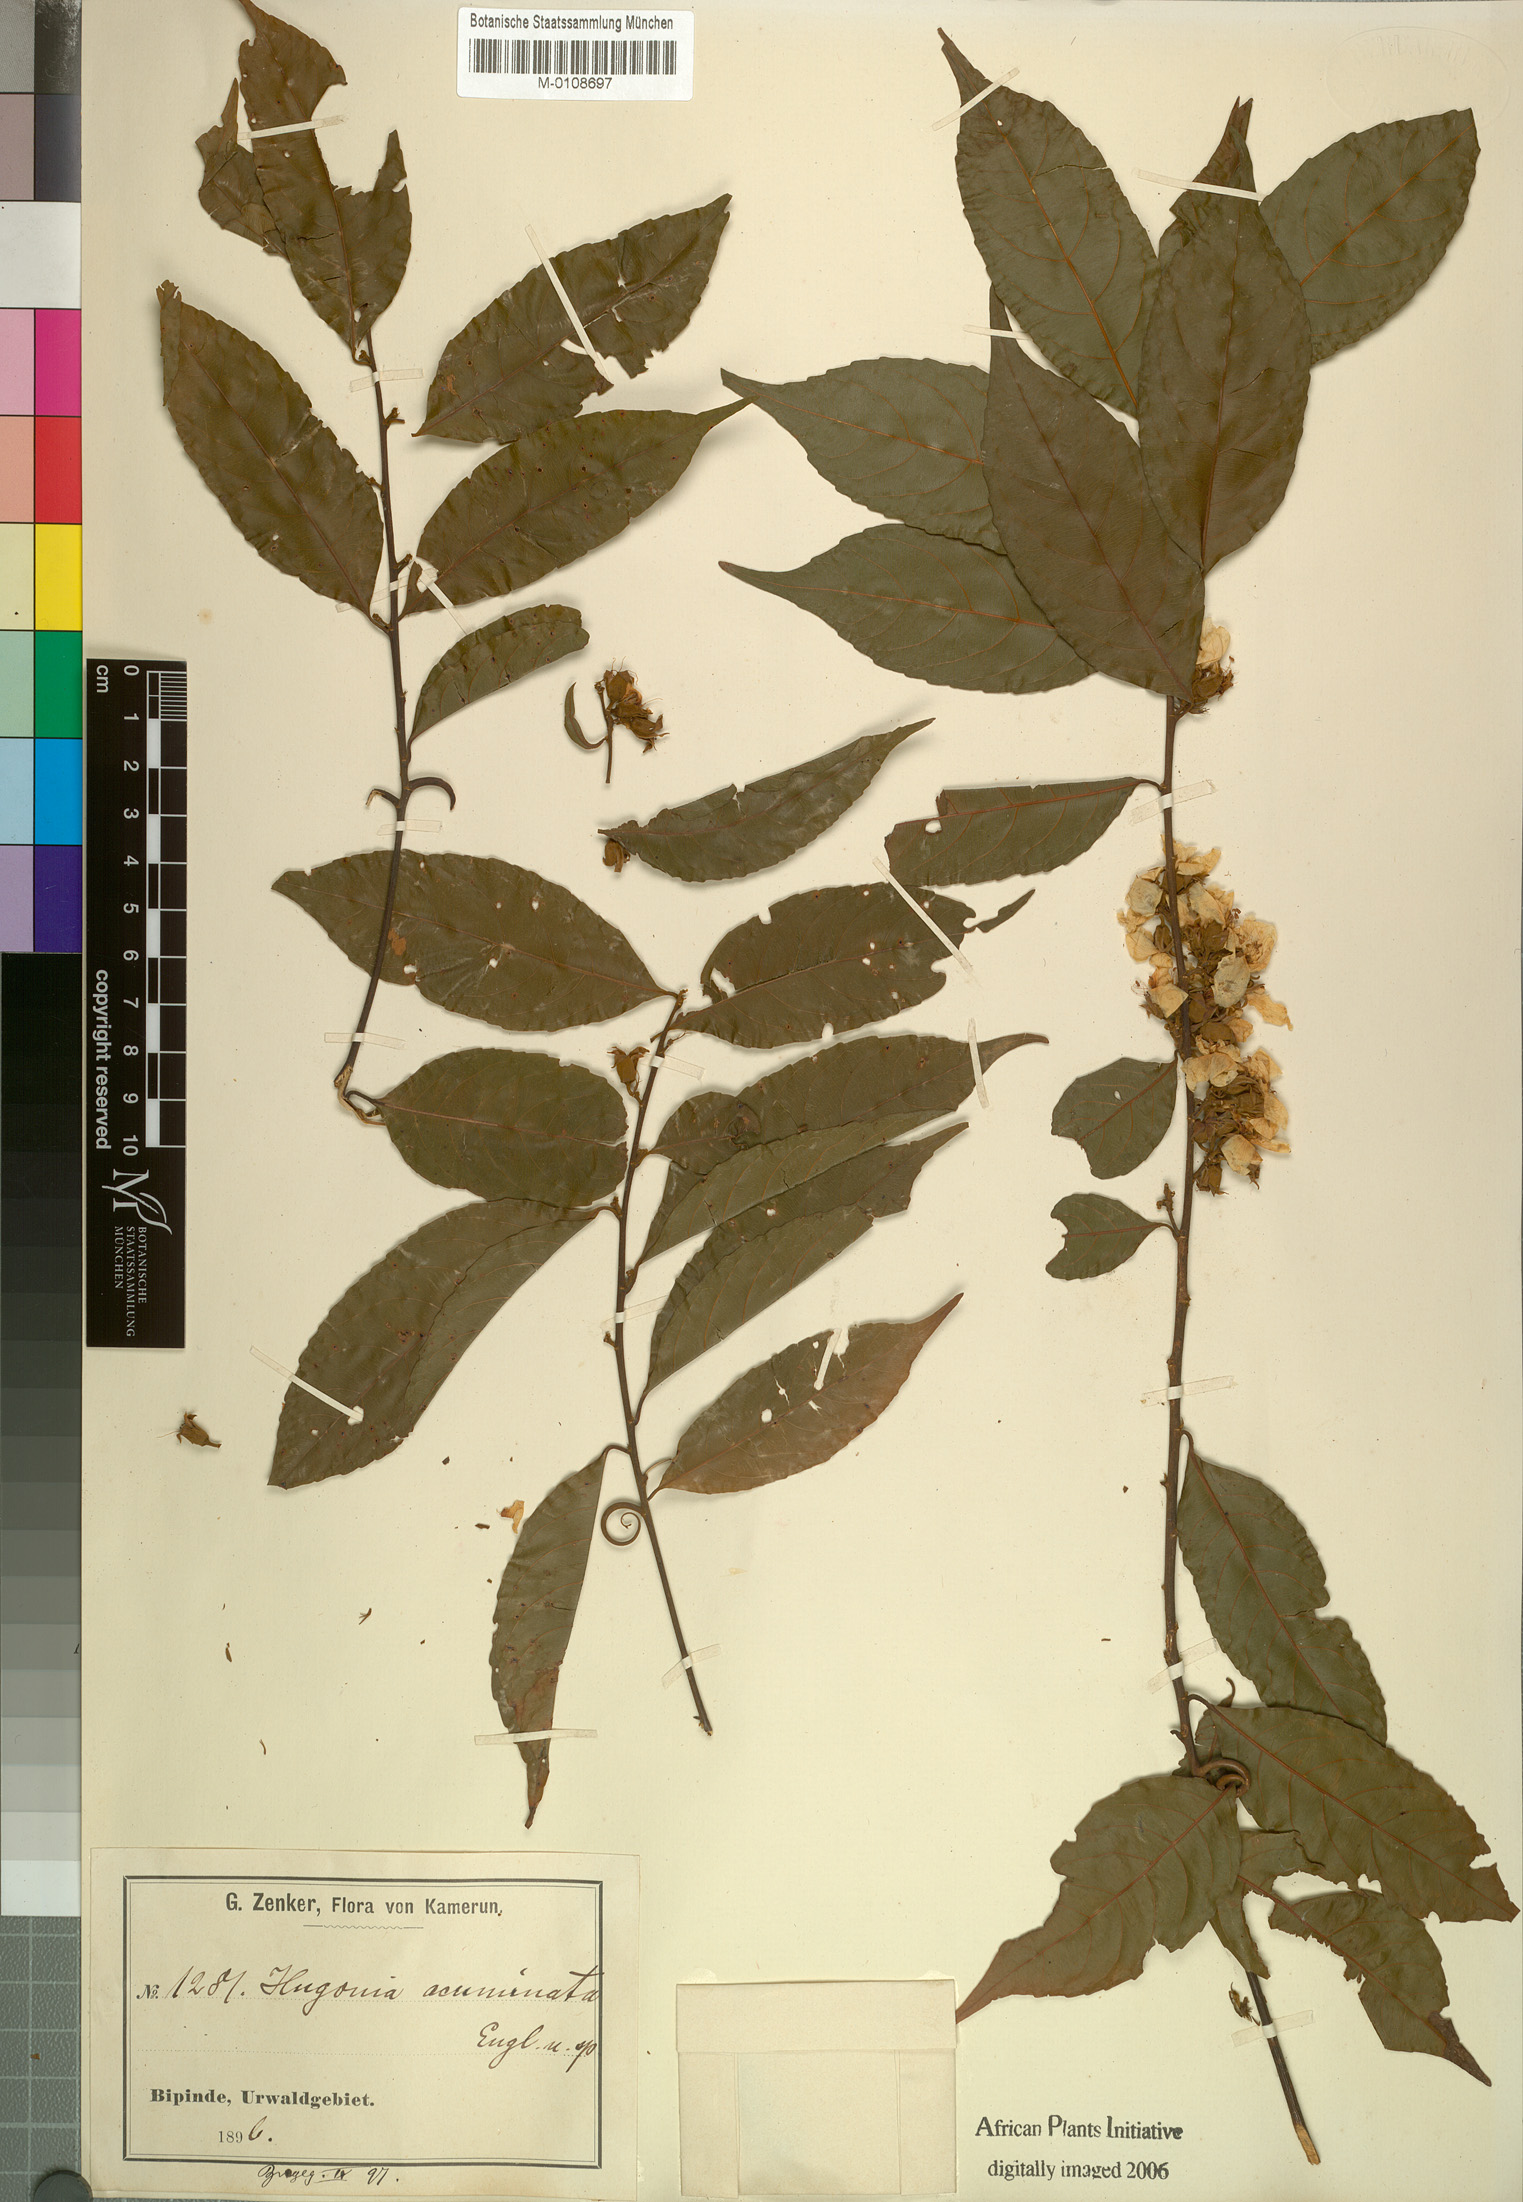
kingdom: Plantae
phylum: Tracheophyta
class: Magnoliopsida
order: Malpighiales
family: Linaceae
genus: Linum
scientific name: Linum thunbergii
